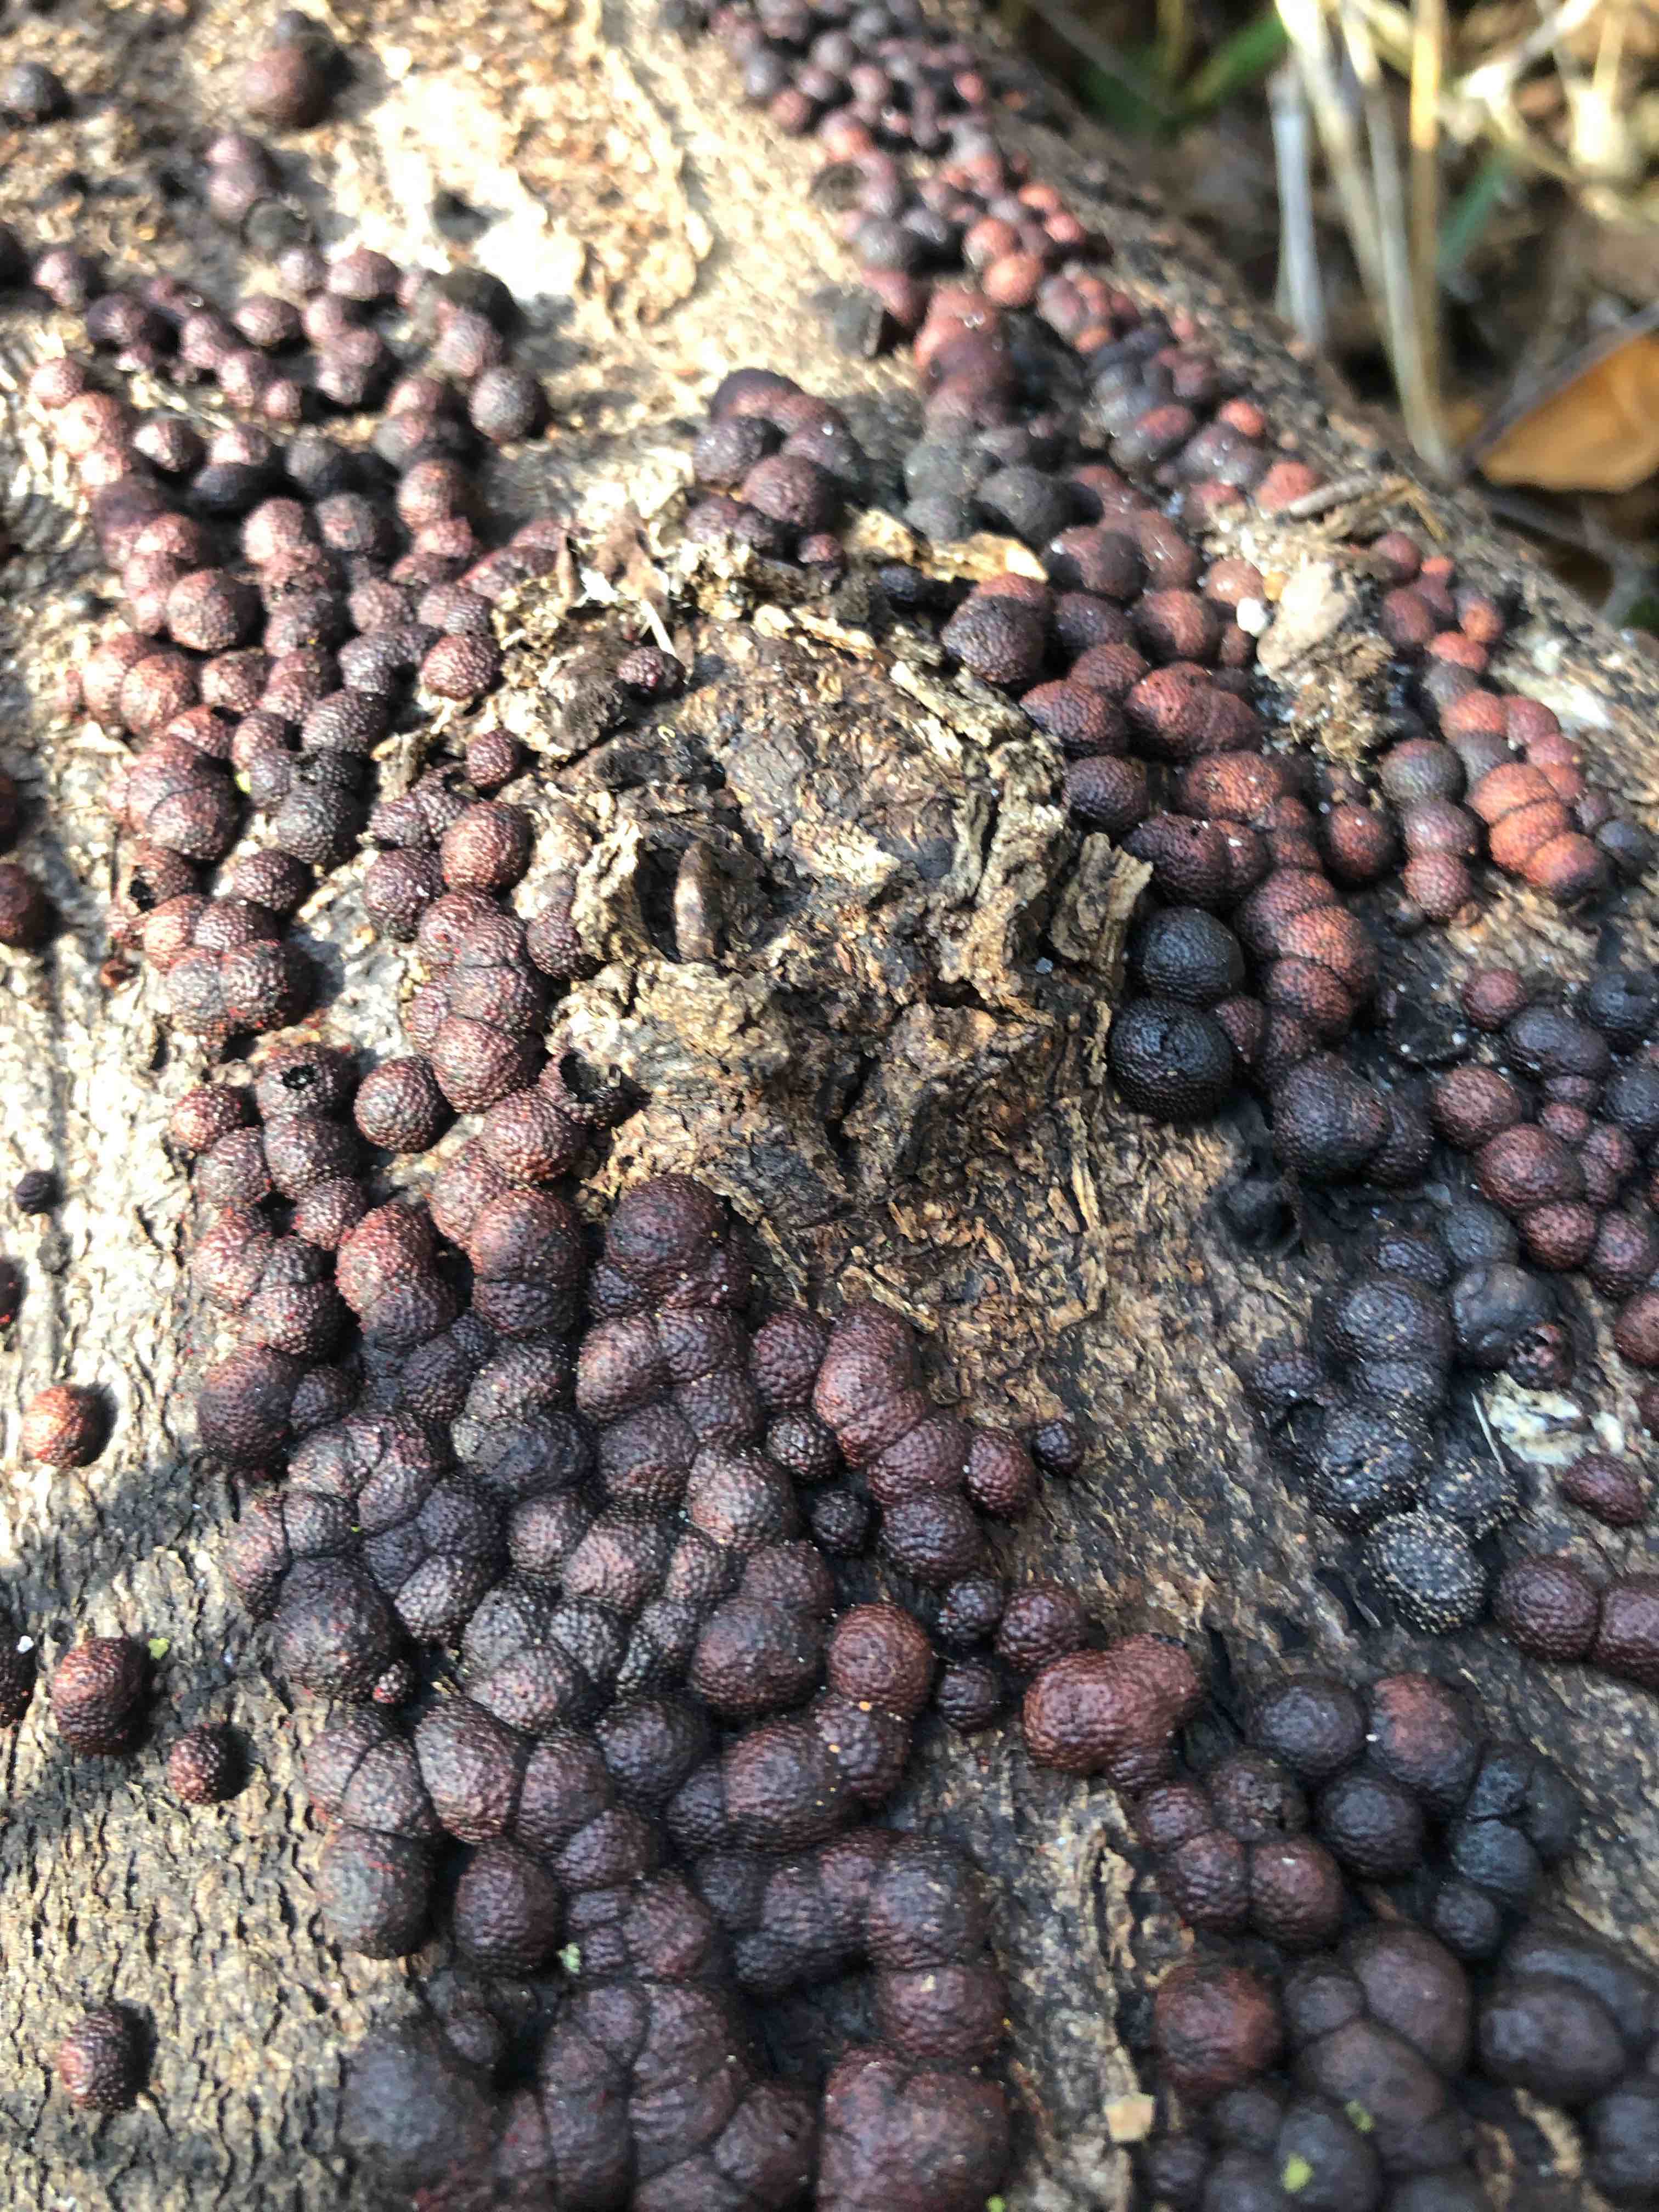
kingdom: Fungi
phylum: Ascomycota
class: Sordariomycetes
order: Xylariales
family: Hypoxylaceae
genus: Hypoxylon
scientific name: Hypoxylon fragiforme
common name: kuljordbær
